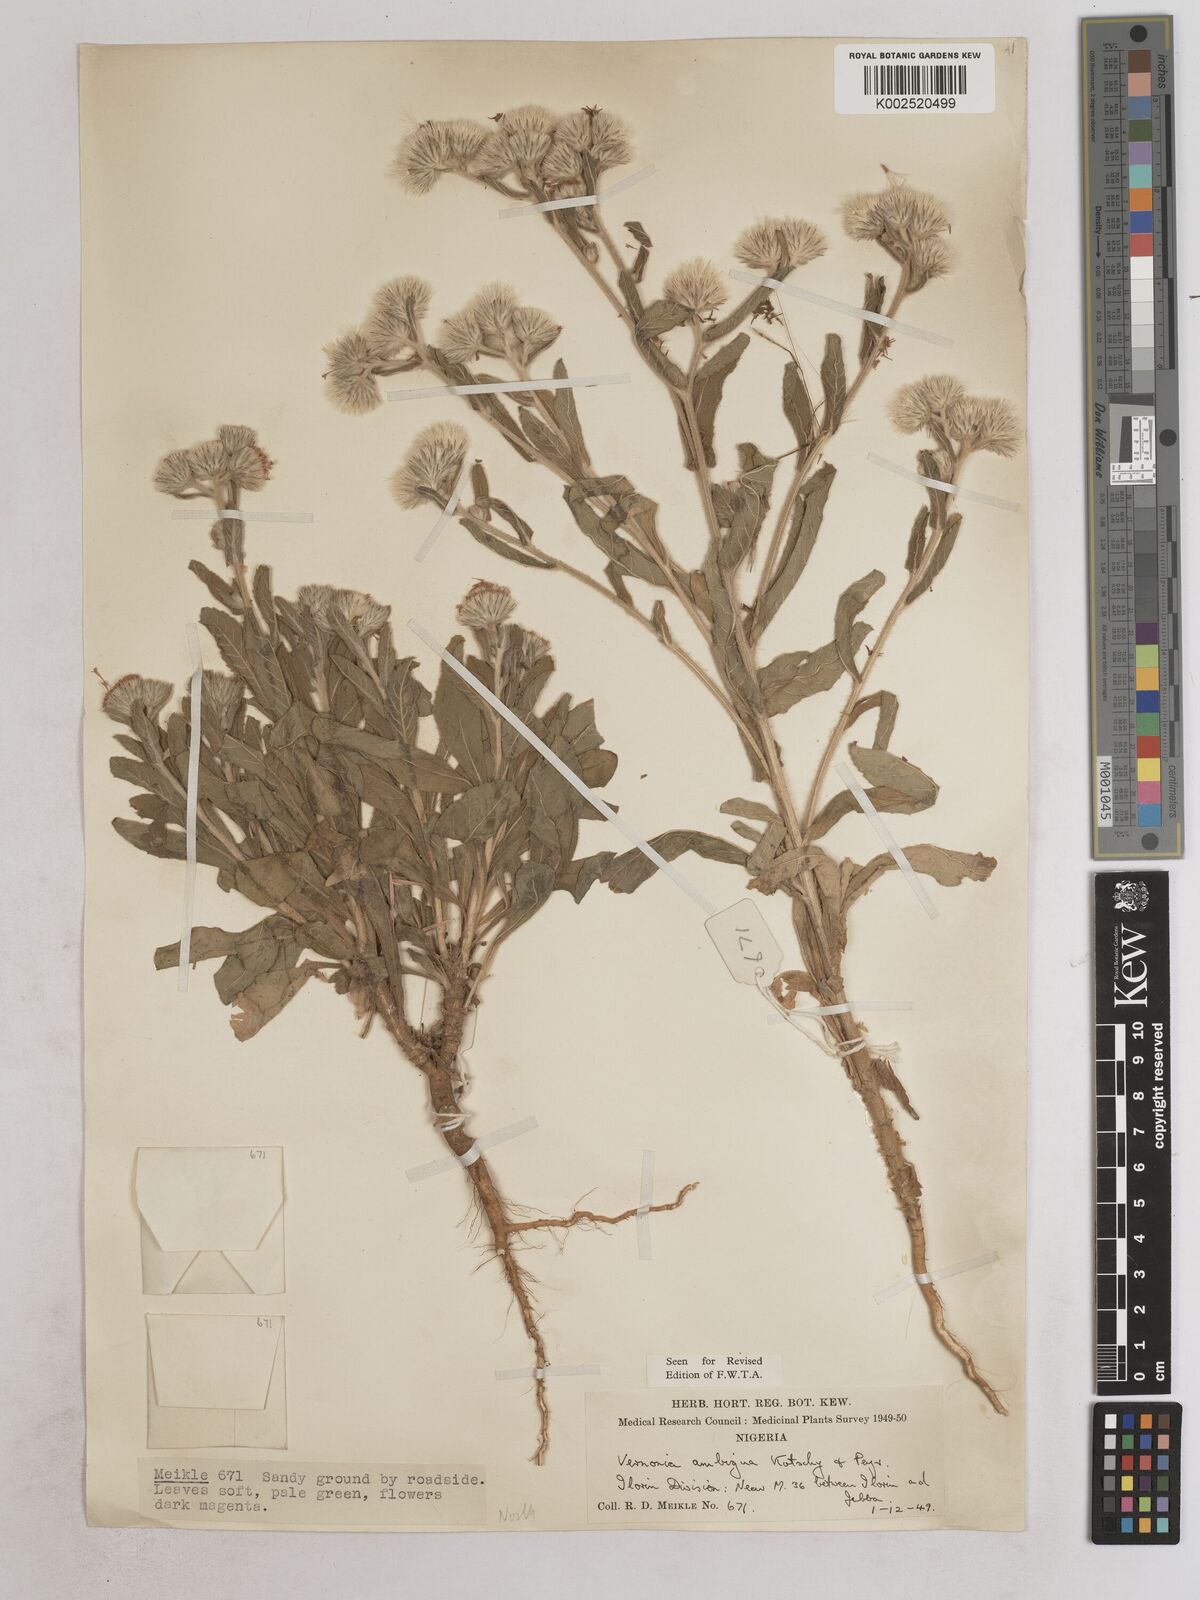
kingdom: Plantae
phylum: Tracheophyta
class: Magnoliopsida
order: Asterales
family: Asteraceae
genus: Vernoniastrum
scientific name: Vernoniastrum ambiguum
